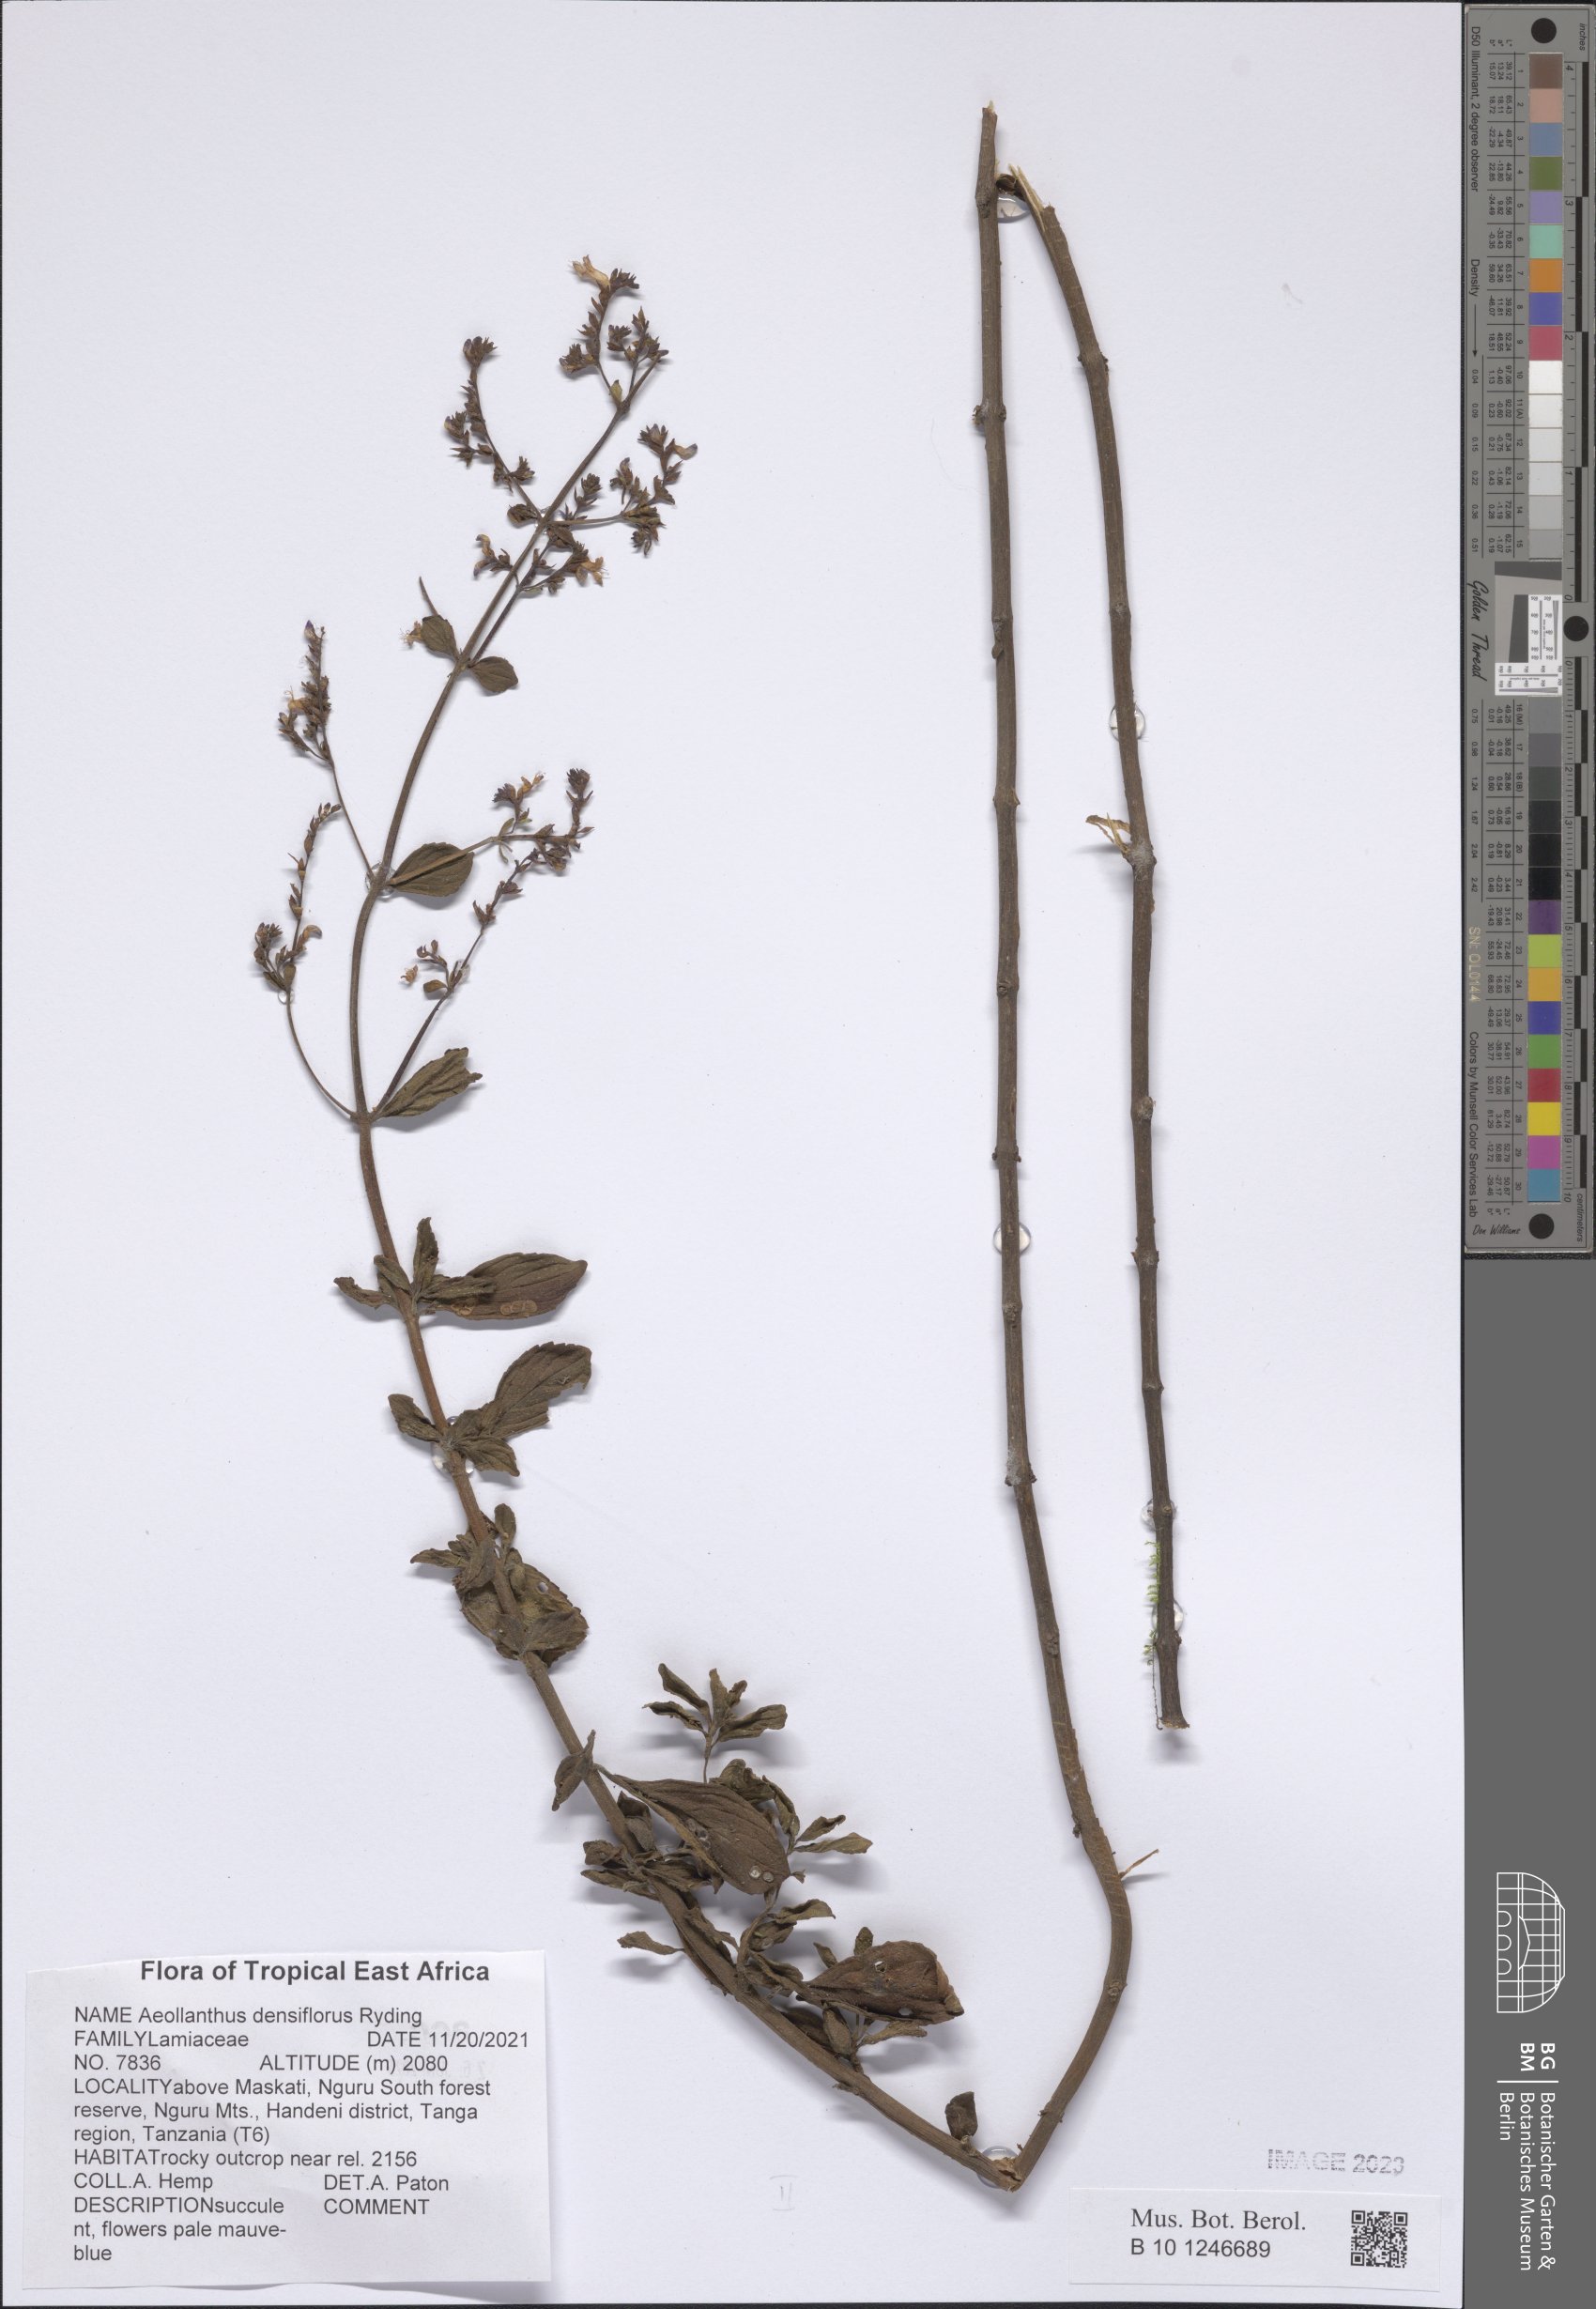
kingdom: Plantae
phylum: Tracheophyta
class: Magnoliopsida
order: Lamiales
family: Lamiaceae
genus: Aeollanthus
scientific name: Aeollanthus densiflorus
